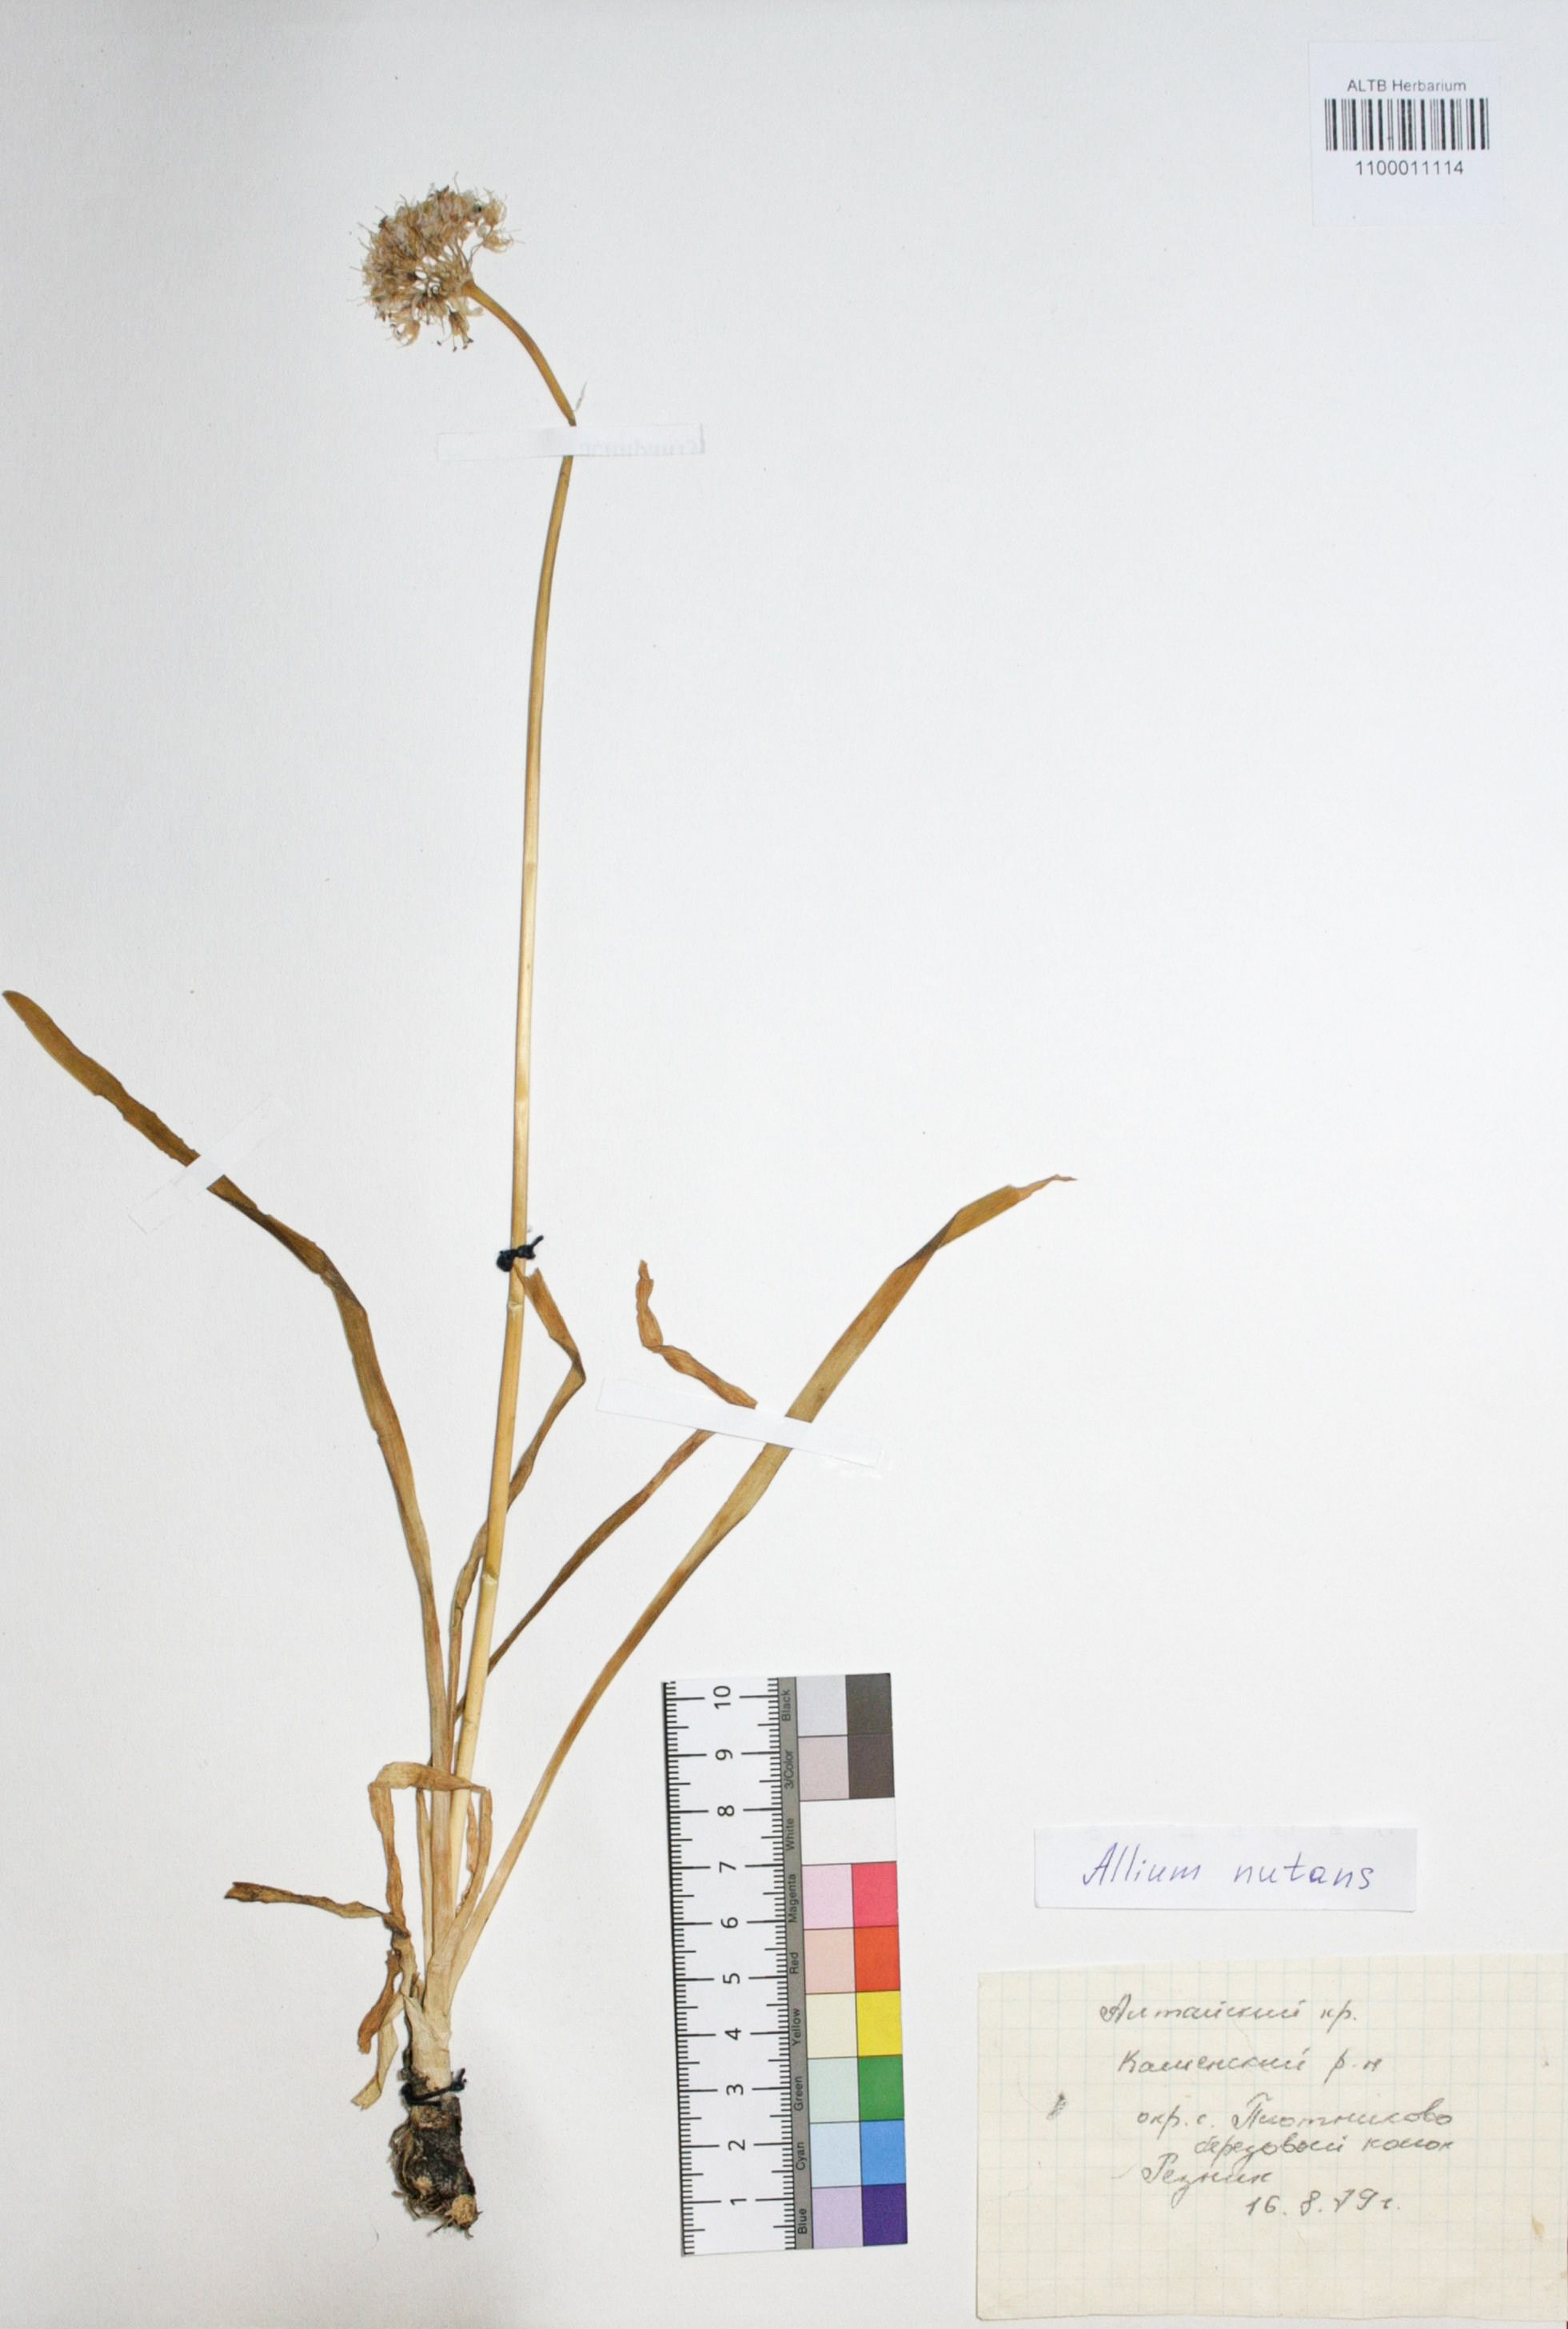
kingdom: Plantae
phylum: Tracheophyta
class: Liliopsida
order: Asparagales
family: Amaryllidaceae
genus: Allium
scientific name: Allium nutans
